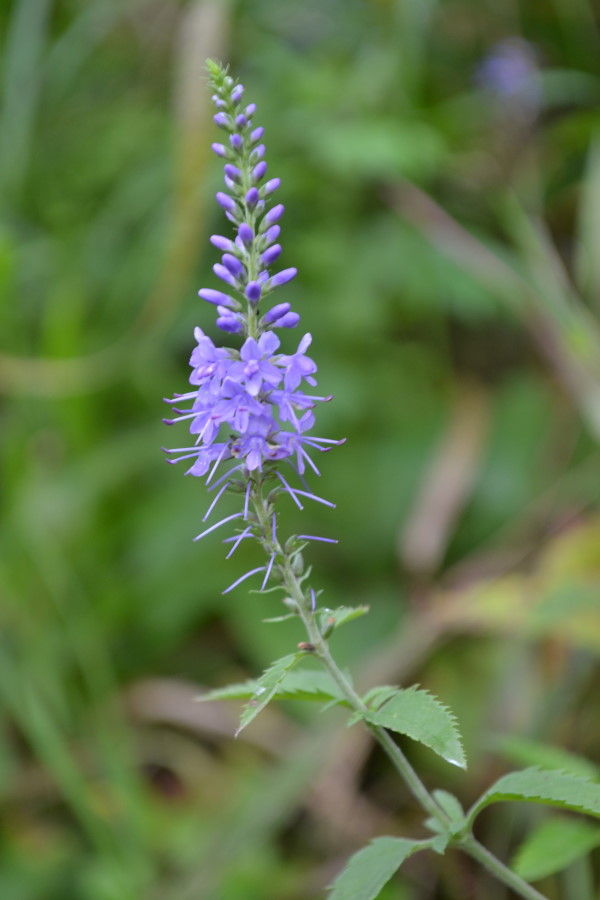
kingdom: Plantae
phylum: Tracheophyta
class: Magnoliopsida
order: Lamiales
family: Plantaginaceae
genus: Veronica
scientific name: Veronica longifolia
